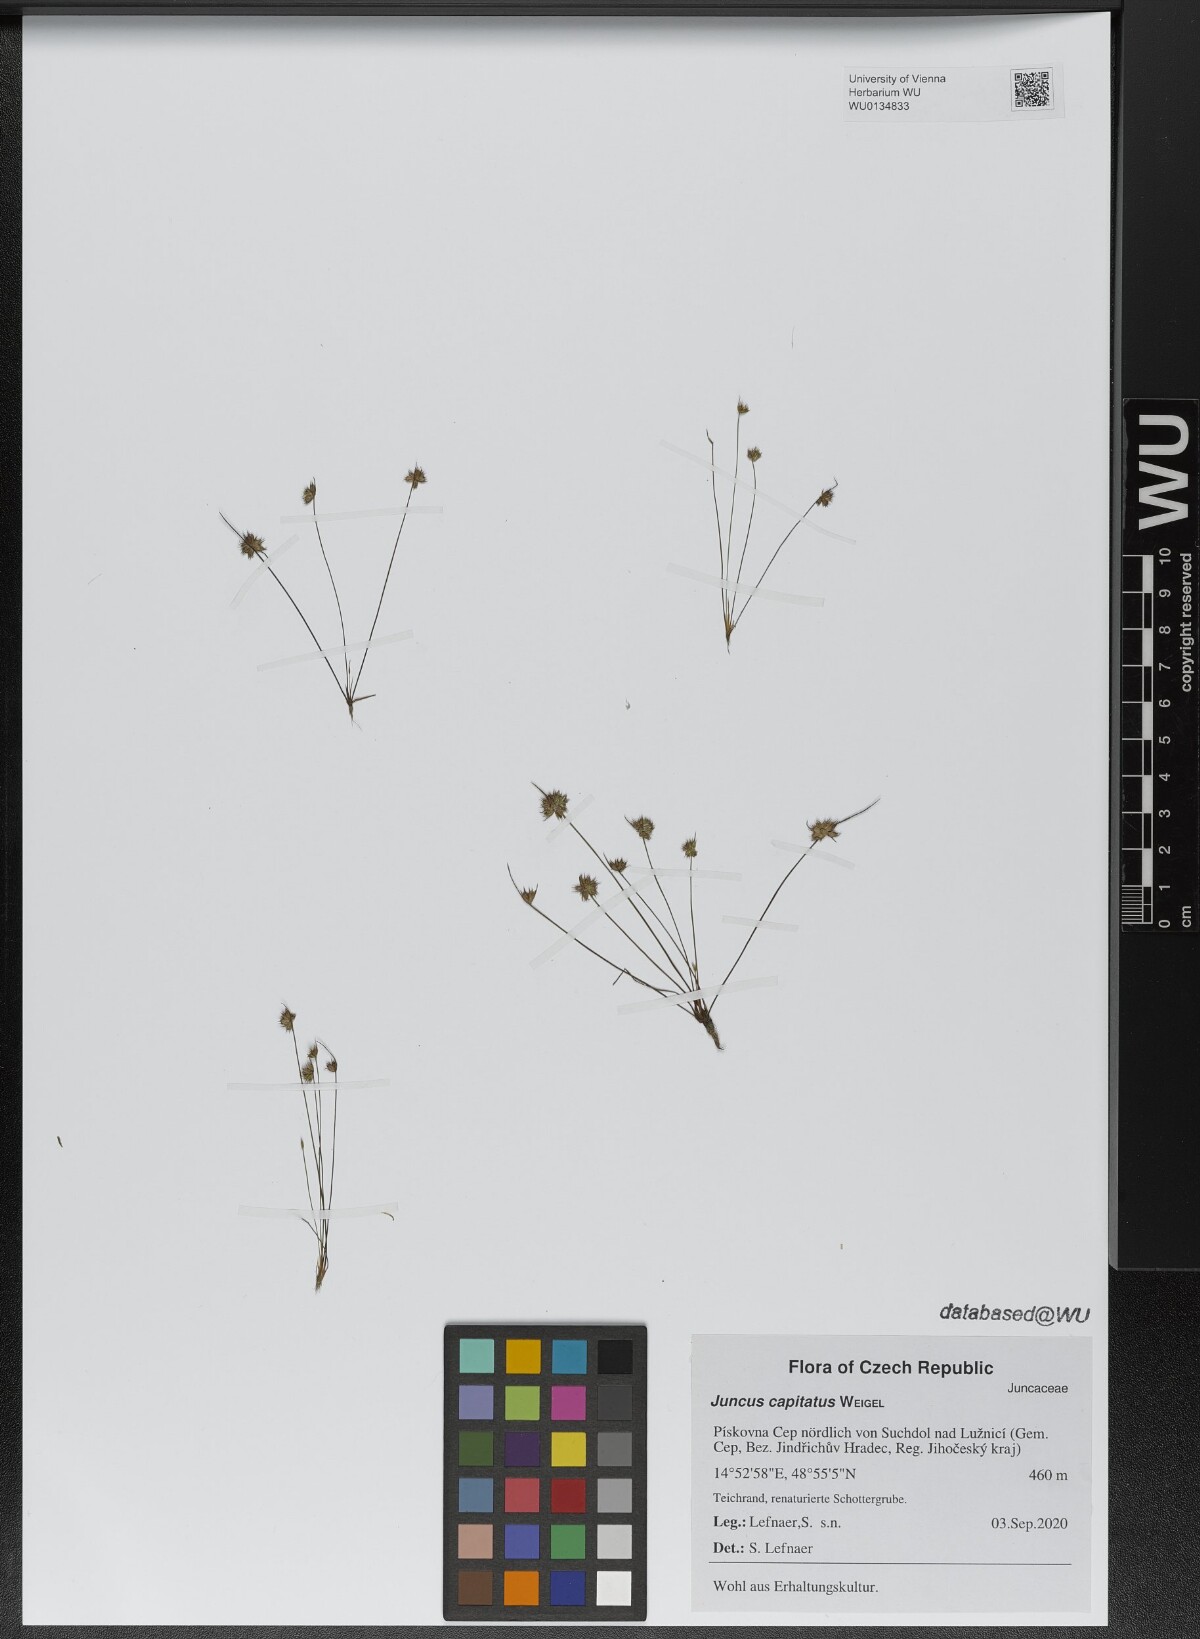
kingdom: Plantae
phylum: Tracheophyta
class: Liliopsida
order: Poales
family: Juncaceae
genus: Juncus
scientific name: Juncus capitatus
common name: Dwarf rush
